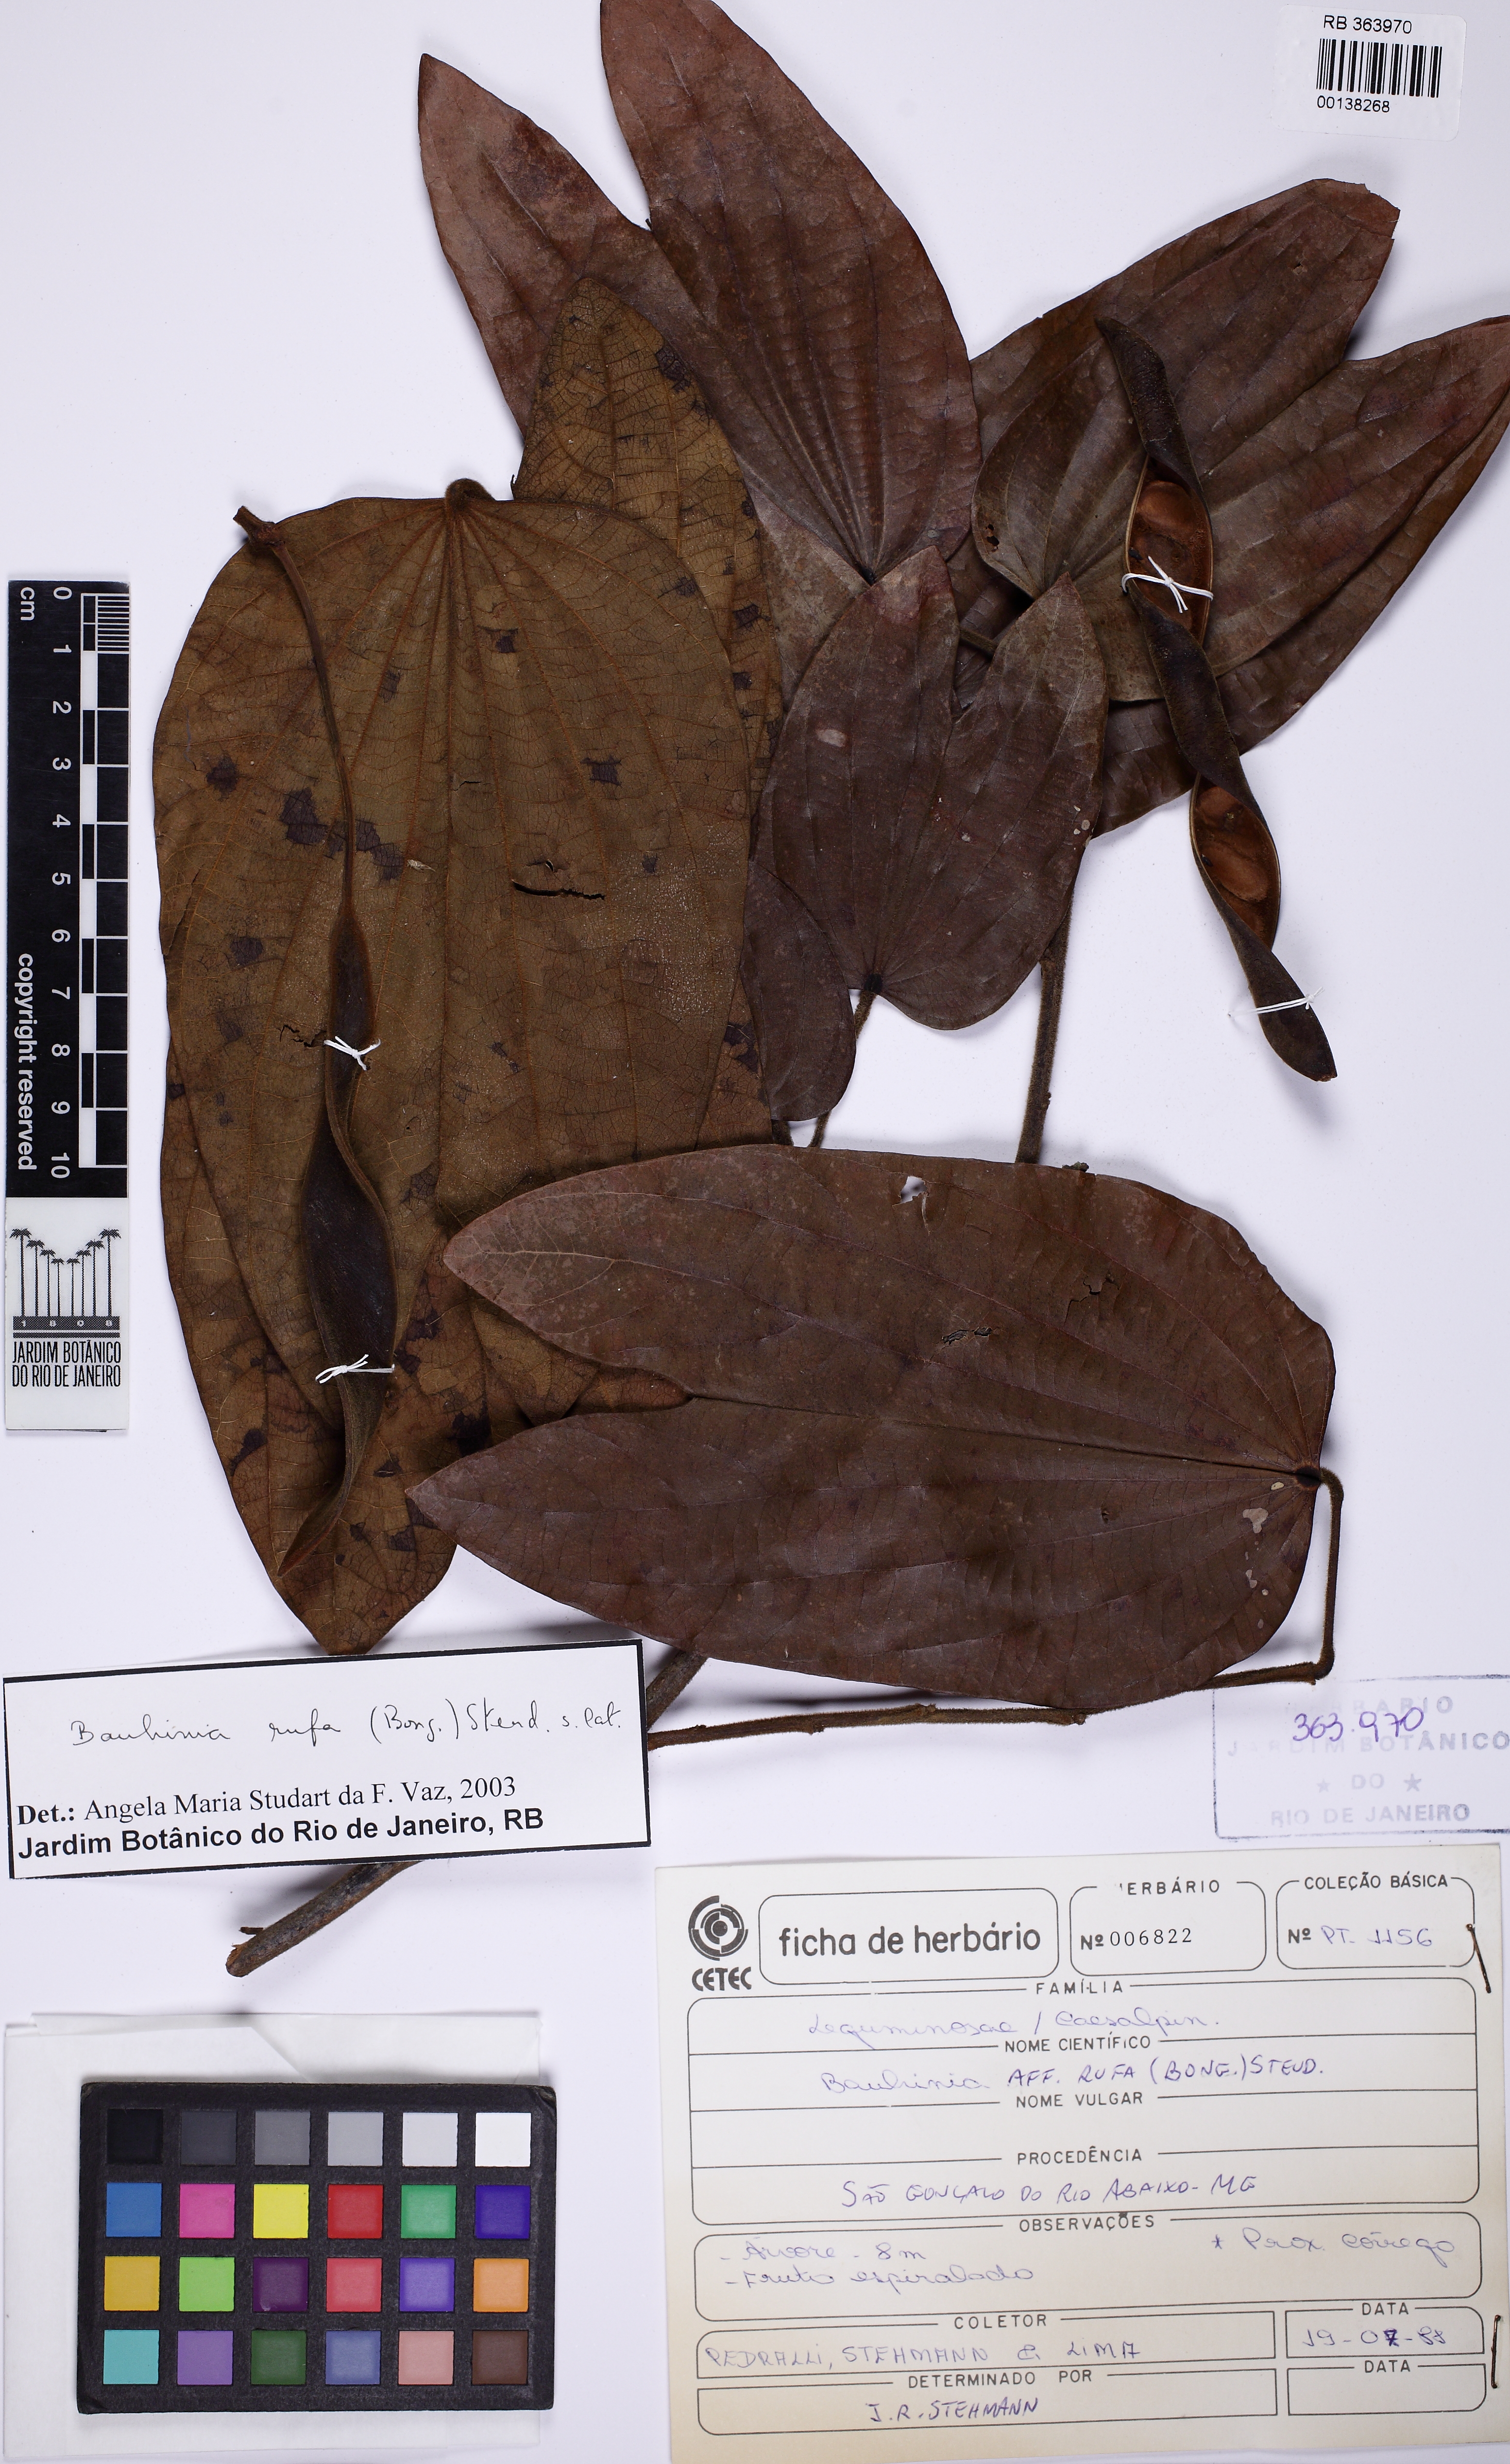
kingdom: Plantae
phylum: Tracheophyta
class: Magnoliopsida
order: Fabales
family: Fabaceae
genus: Bauhinia
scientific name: Bauhinia rufa
